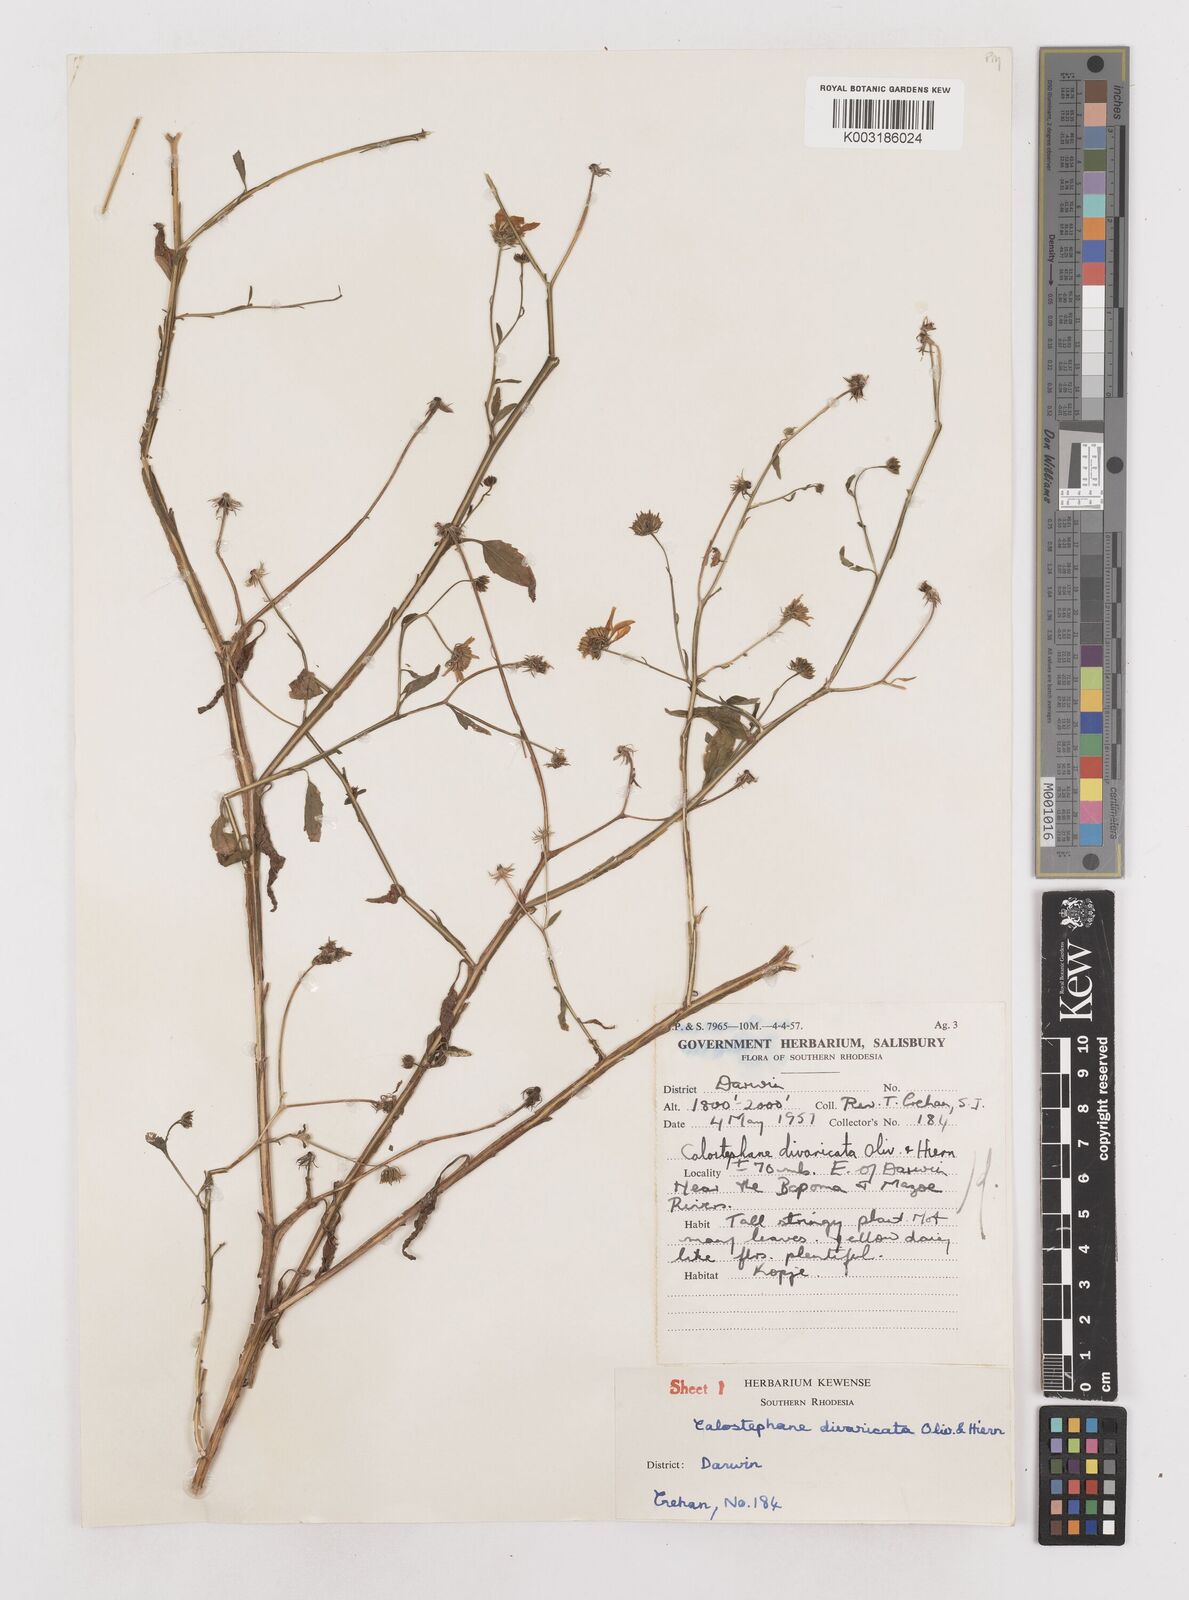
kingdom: Plantae
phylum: Tracheophyta
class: Magnoliopsida
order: Asterales
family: Asteraceae
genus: Calostephane
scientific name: Calostephane divaricata
